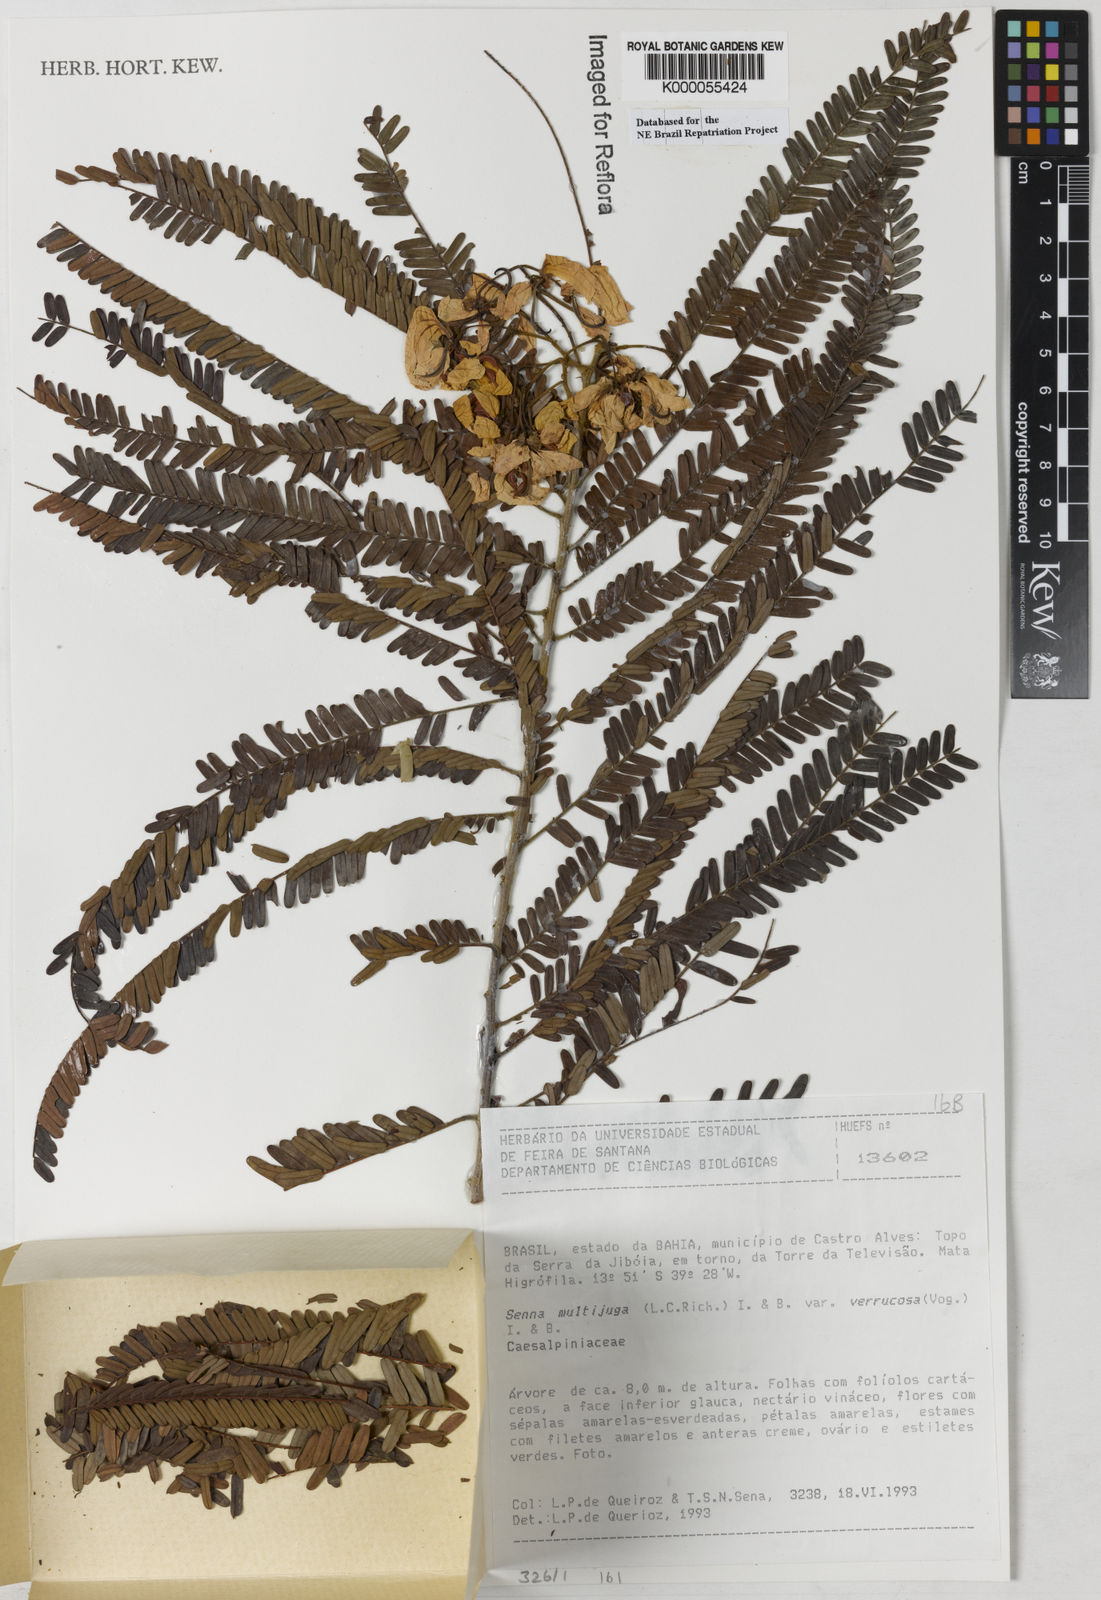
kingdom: Plantae
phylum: Tracheophyta
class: Magnoliopsida
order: Fabales
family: Fabaceae
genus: Senna
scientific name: Senna multijuga
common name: False sicklepod
